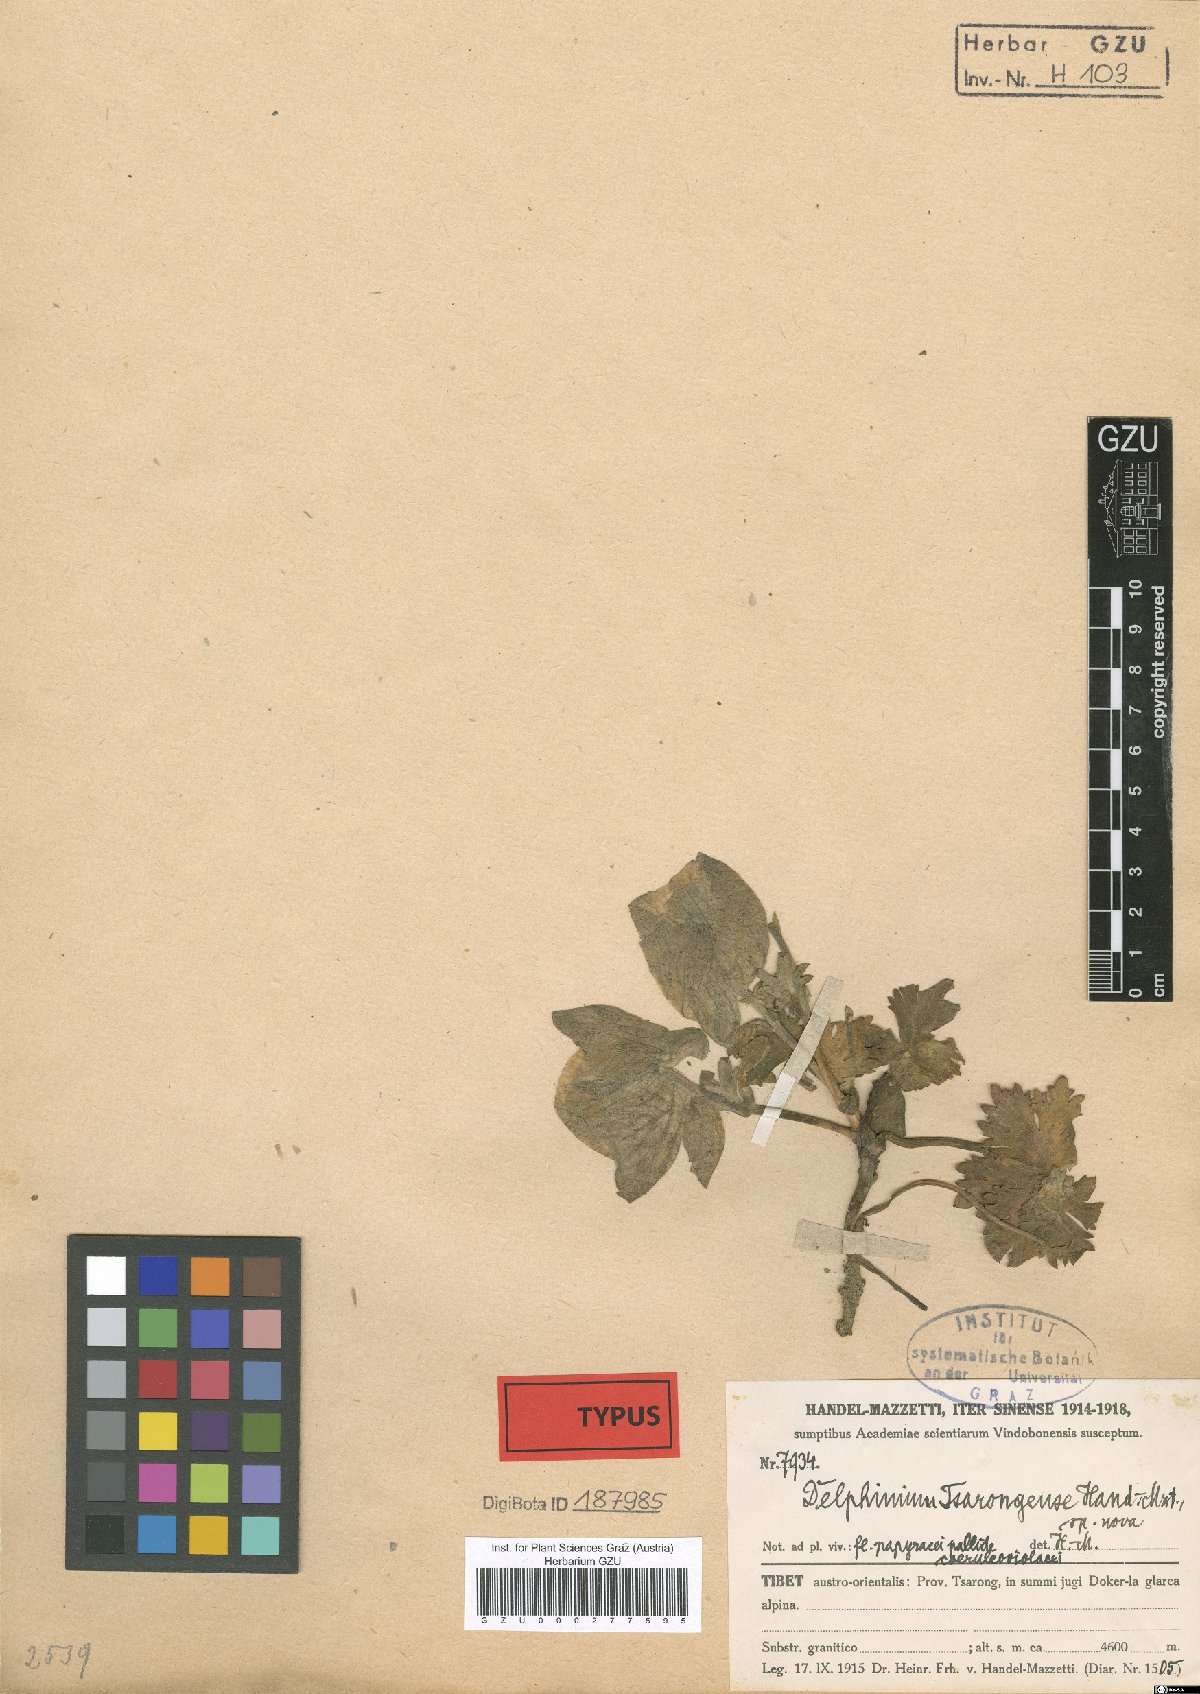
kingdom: Plantae
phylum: Tracheophyta
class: Magnoliopsida
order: Ranunculales
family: Ranunculaceae
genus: Delphinium
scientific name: Delphinium chrysotrichum
